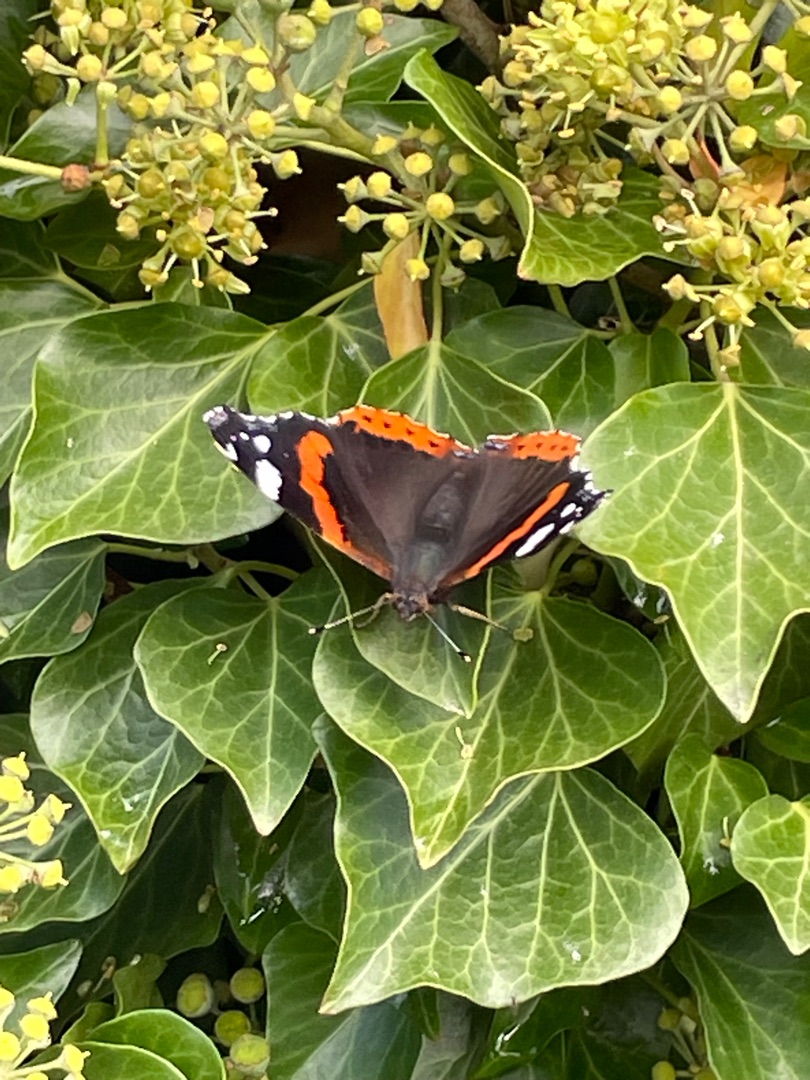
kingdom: Animalia
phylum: Arthropoda
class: Insecta
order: Lepidoptera
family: Nymphalidae
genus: Vanessa
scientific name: Vanessa atalanta
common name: Admiral
